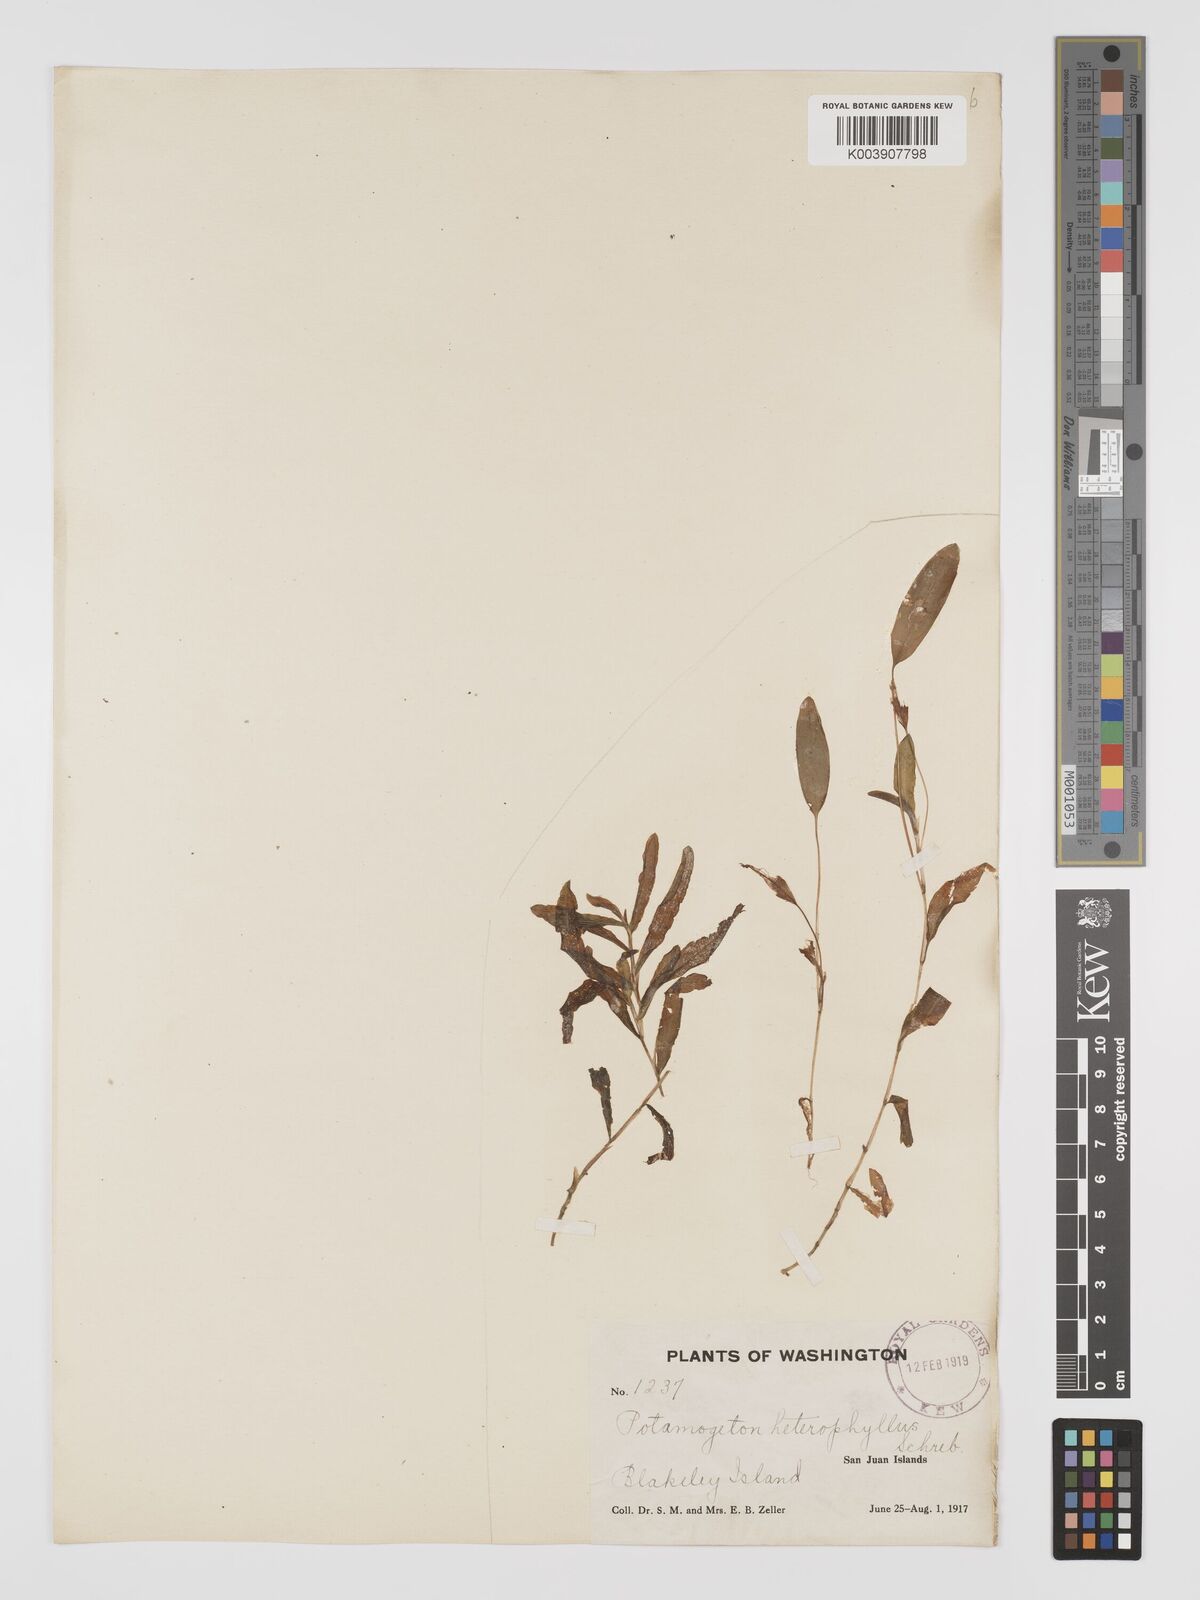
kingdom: Plantae
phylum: Tracheophyta
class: Liliopsida
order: Alismatales
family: Potamogetonaceae
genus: Potamogeton
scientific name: Potamogeton gramineus
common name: Various-leaved pondweed
